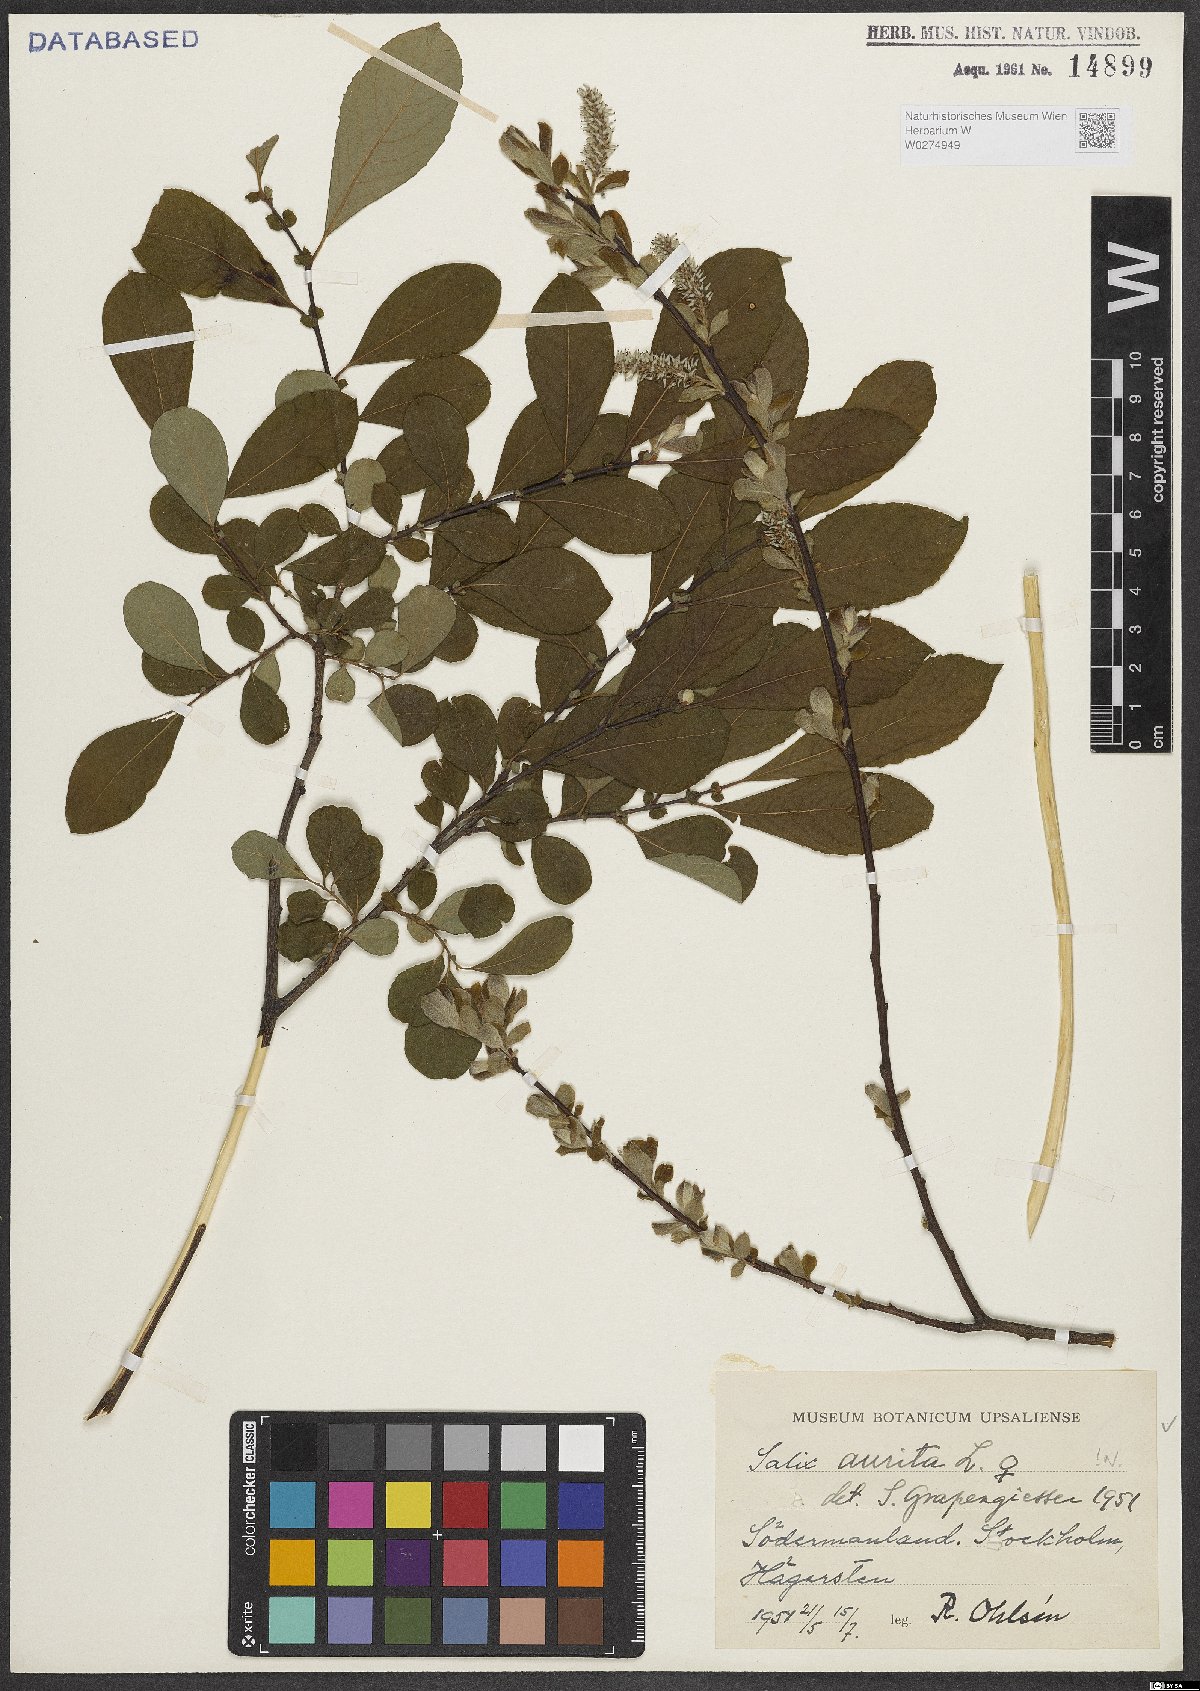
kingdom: Plantae
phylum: Tracheophyta
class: Magnoliopsida
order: Malpighiales
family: Salicaceae
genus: Salix
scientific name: Salix aurita
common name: Eared willow
